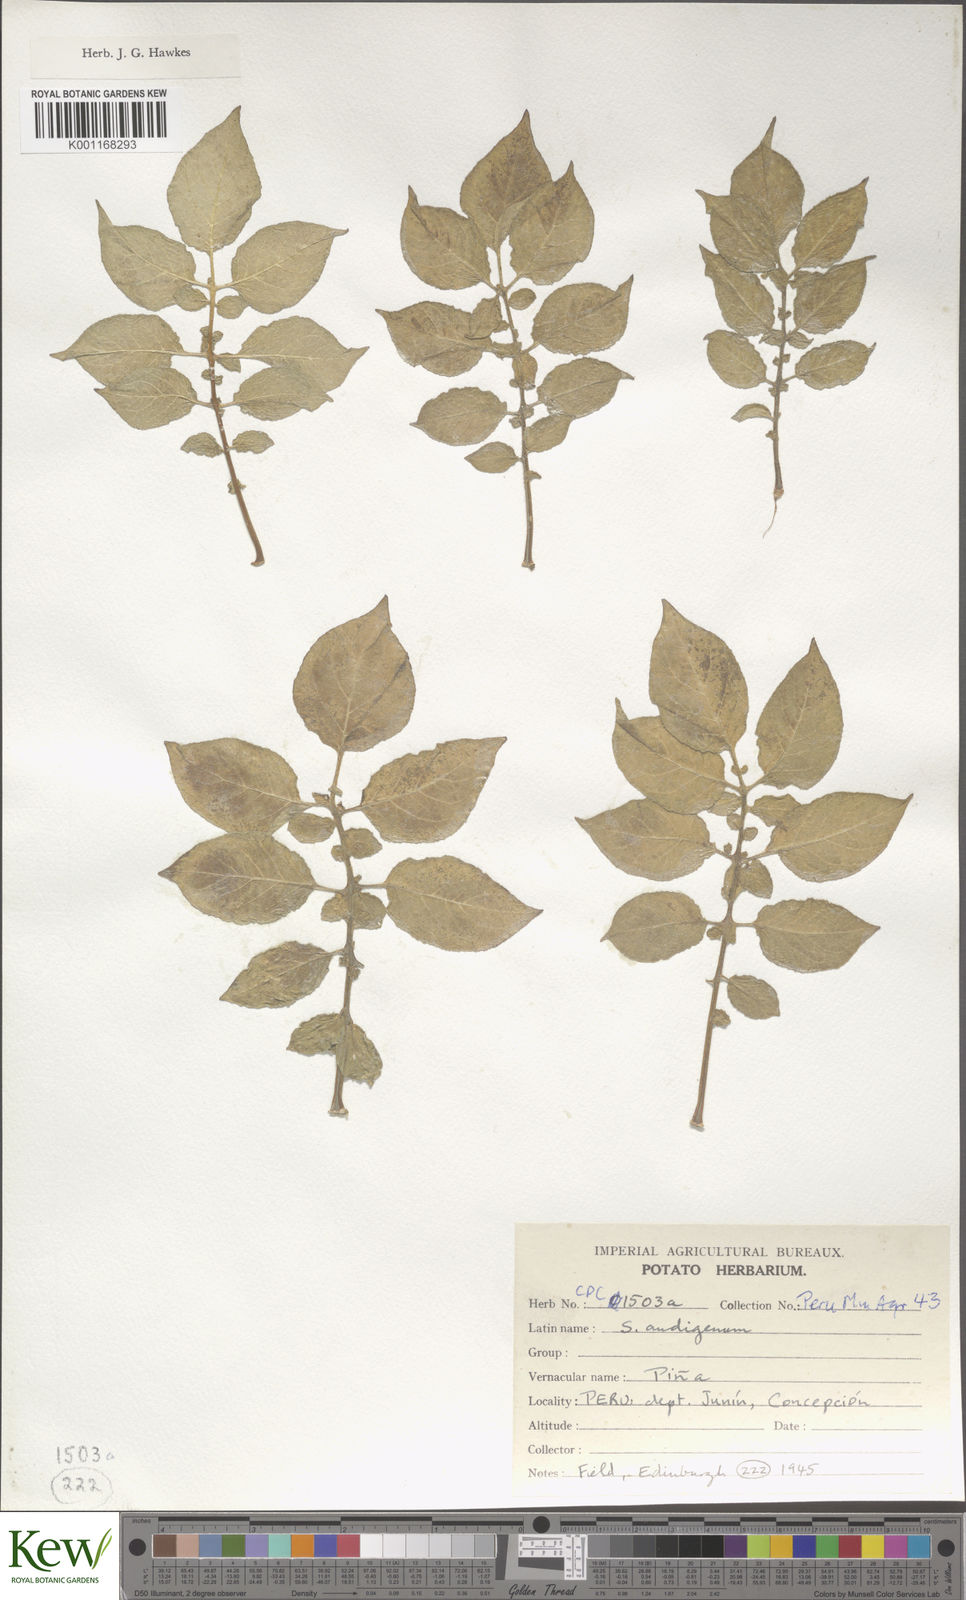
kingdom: Plantae
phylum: Tracheophyta
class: Magnoliopsida
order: Solanales
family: Solanaceae
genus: Solanum
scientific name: Solanum tuberosum
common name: Potato
